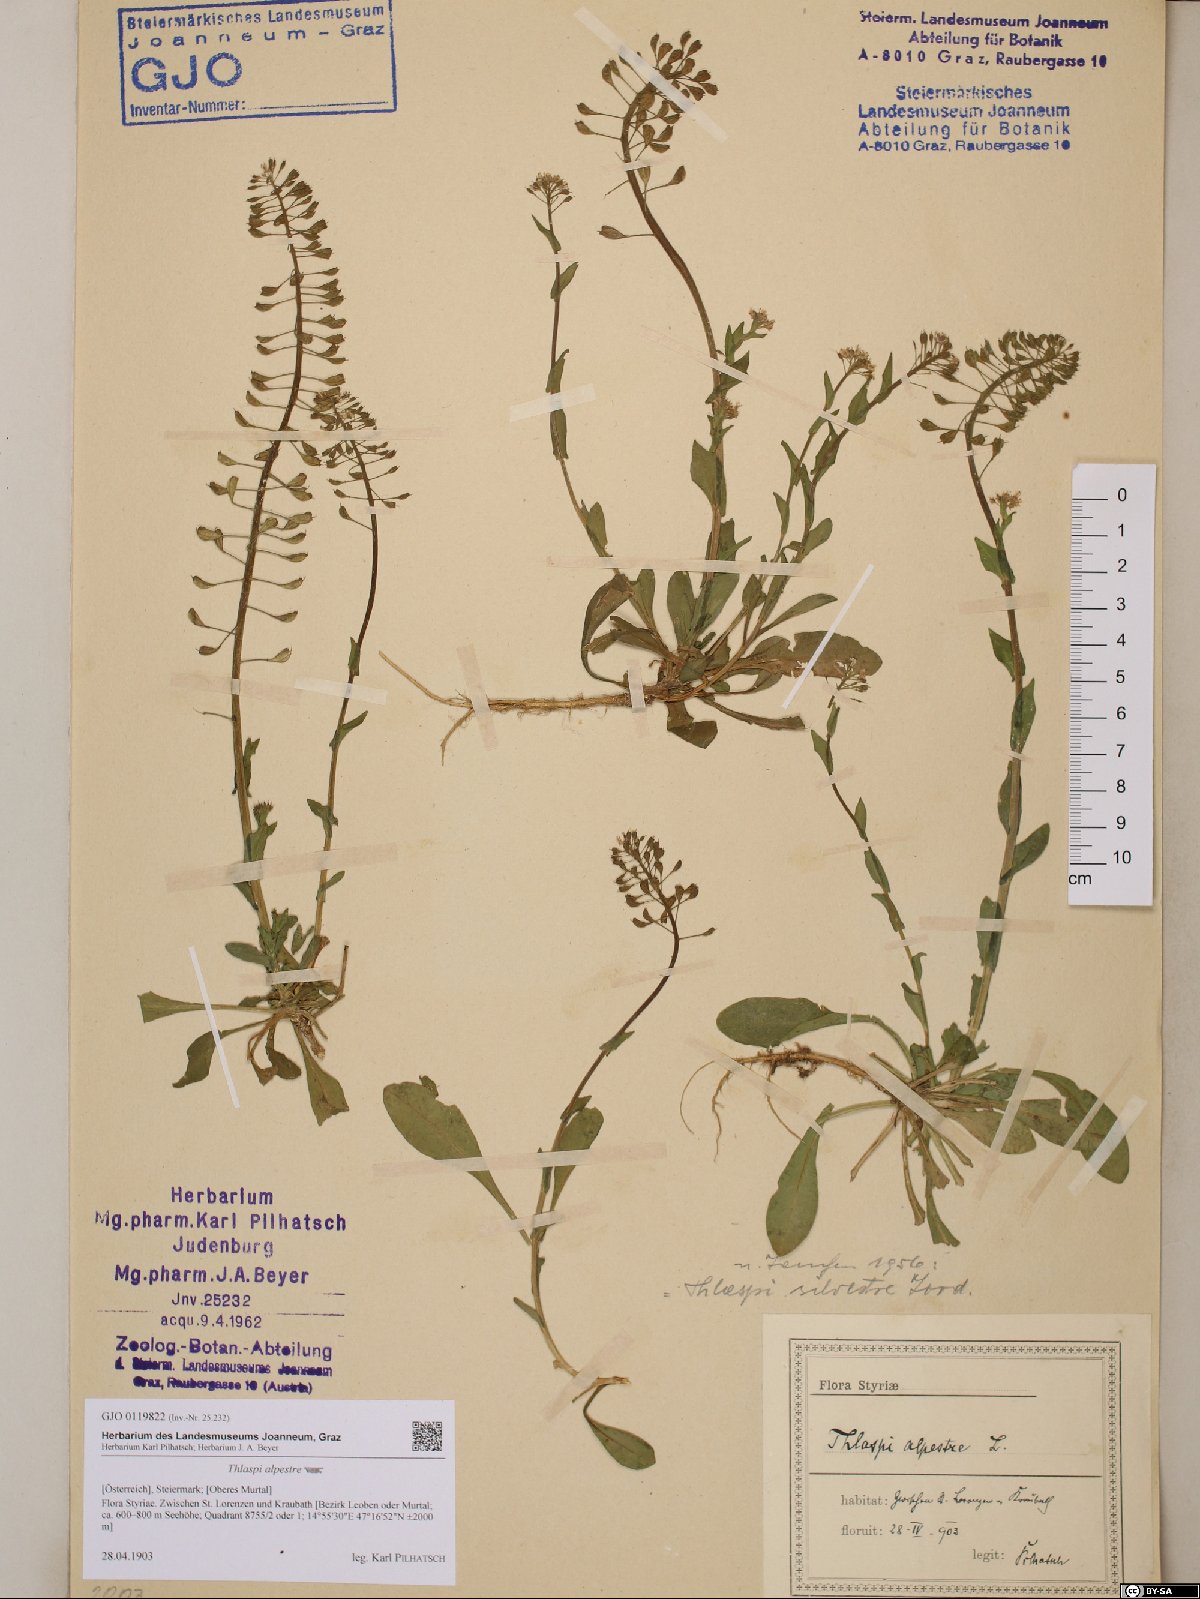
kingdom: Plantae
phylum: Tracheophyta
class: Magnoliopsida
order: Brassicales
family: Brassicaceae
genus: Noccaea
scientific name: Noccaea caerulescens
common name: Alpine pennycress
